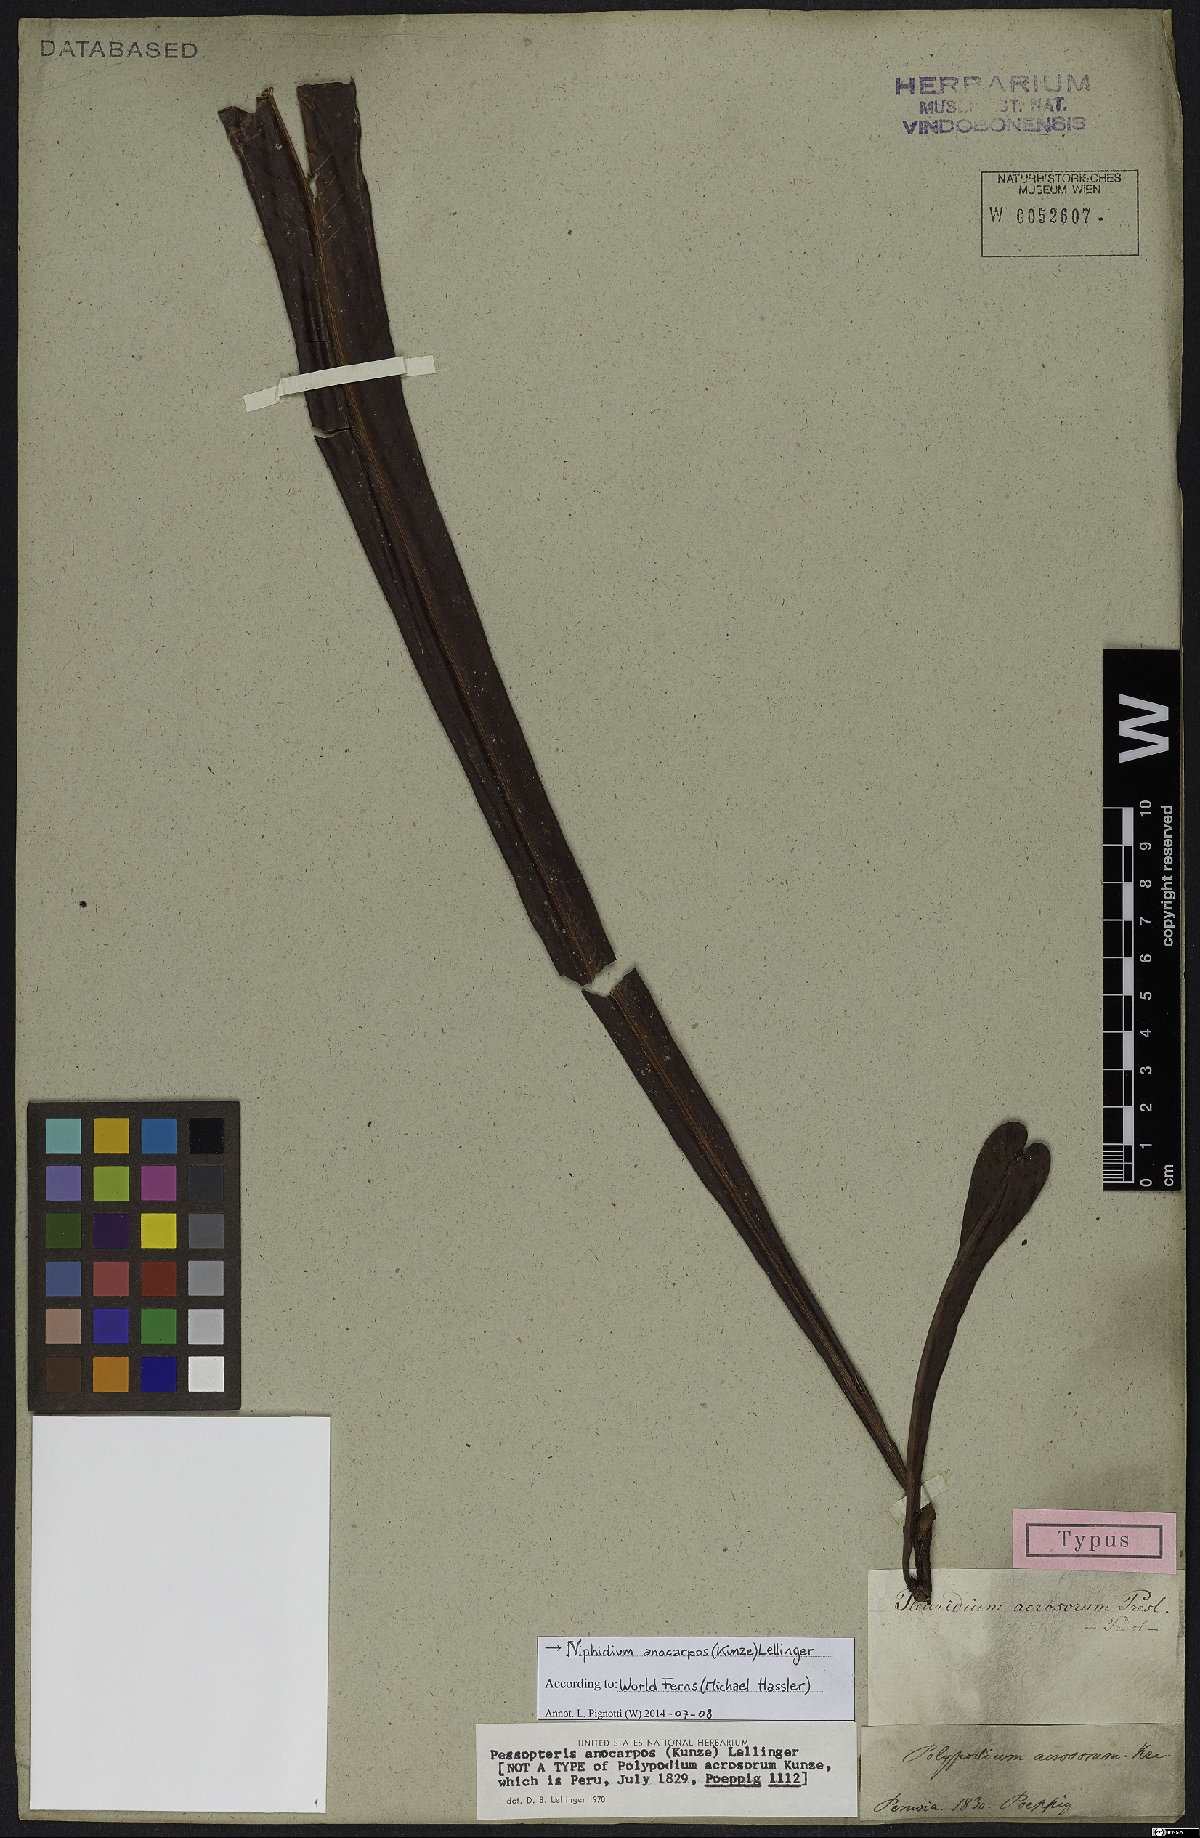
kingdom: Plantae
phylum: Tracheophyta
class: Polypodiopsida
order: Polypodiales
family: Polypodiaceae
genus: Niphidium
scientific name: Niphidium anocarpos
